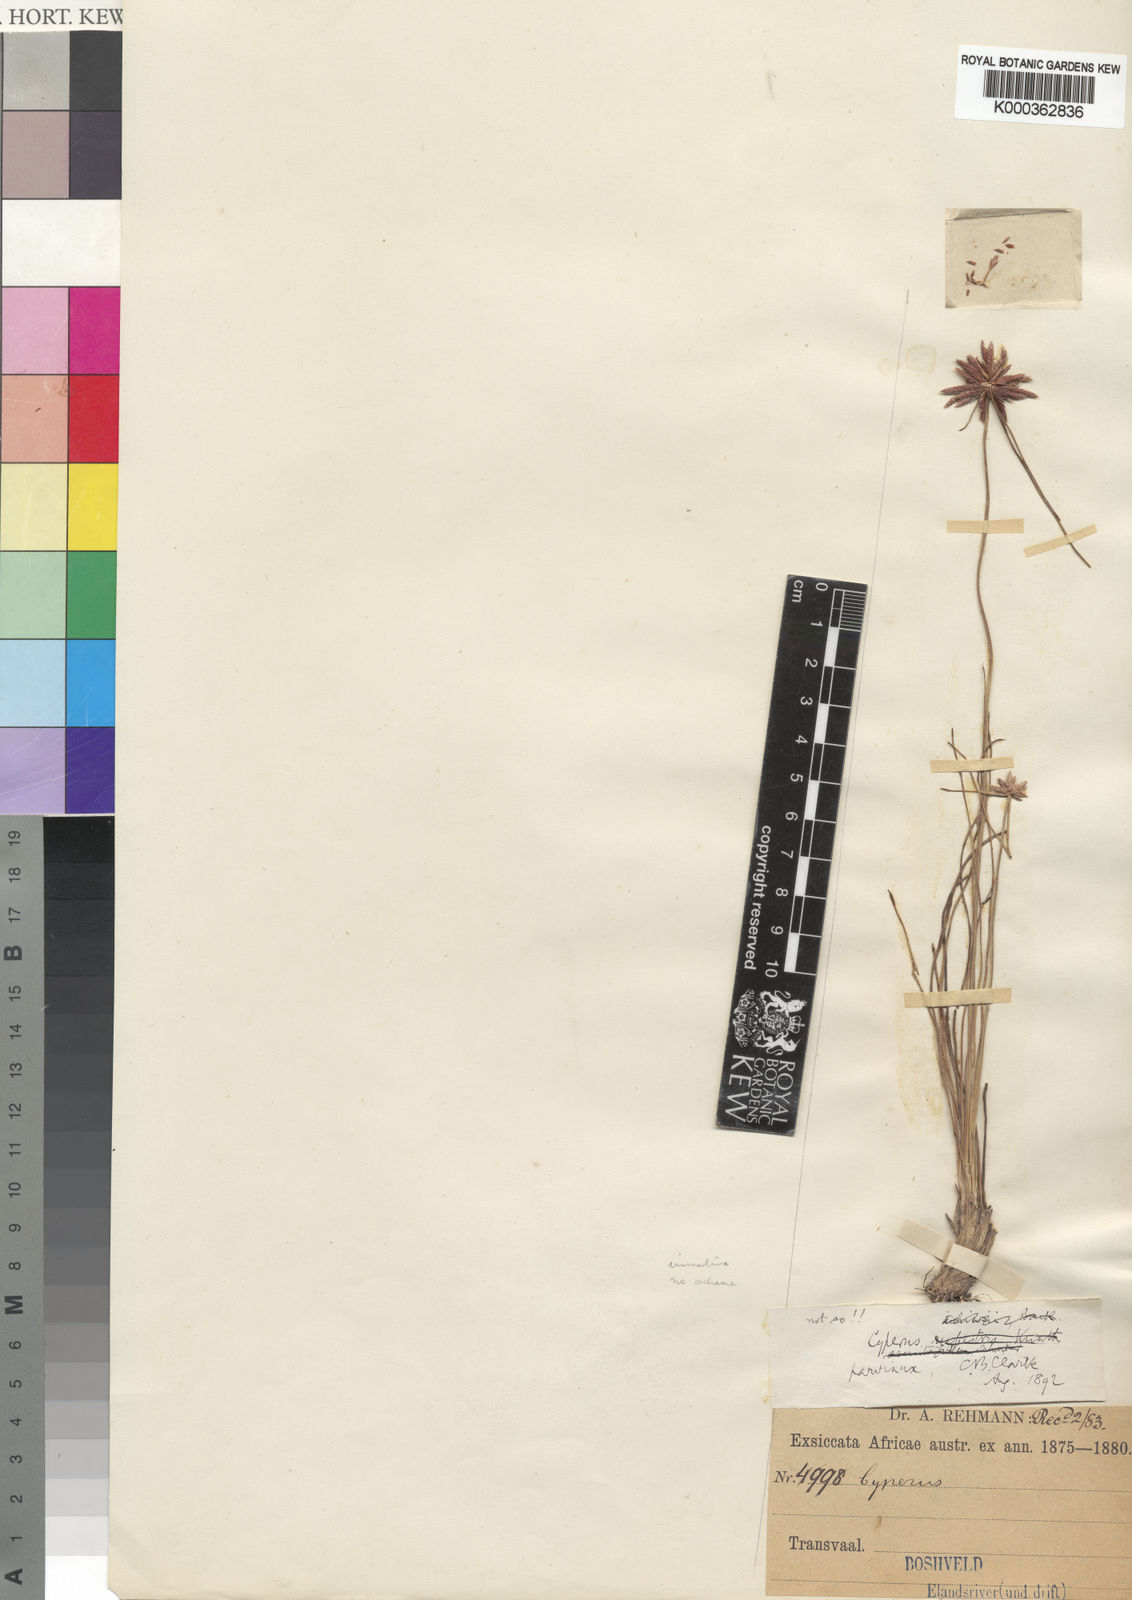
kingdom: Plantae
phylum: Tracheophyta
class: Liliopsida
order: Poales
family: Cyperaceae
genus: Cyperus
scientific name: Cyperus rupestris
